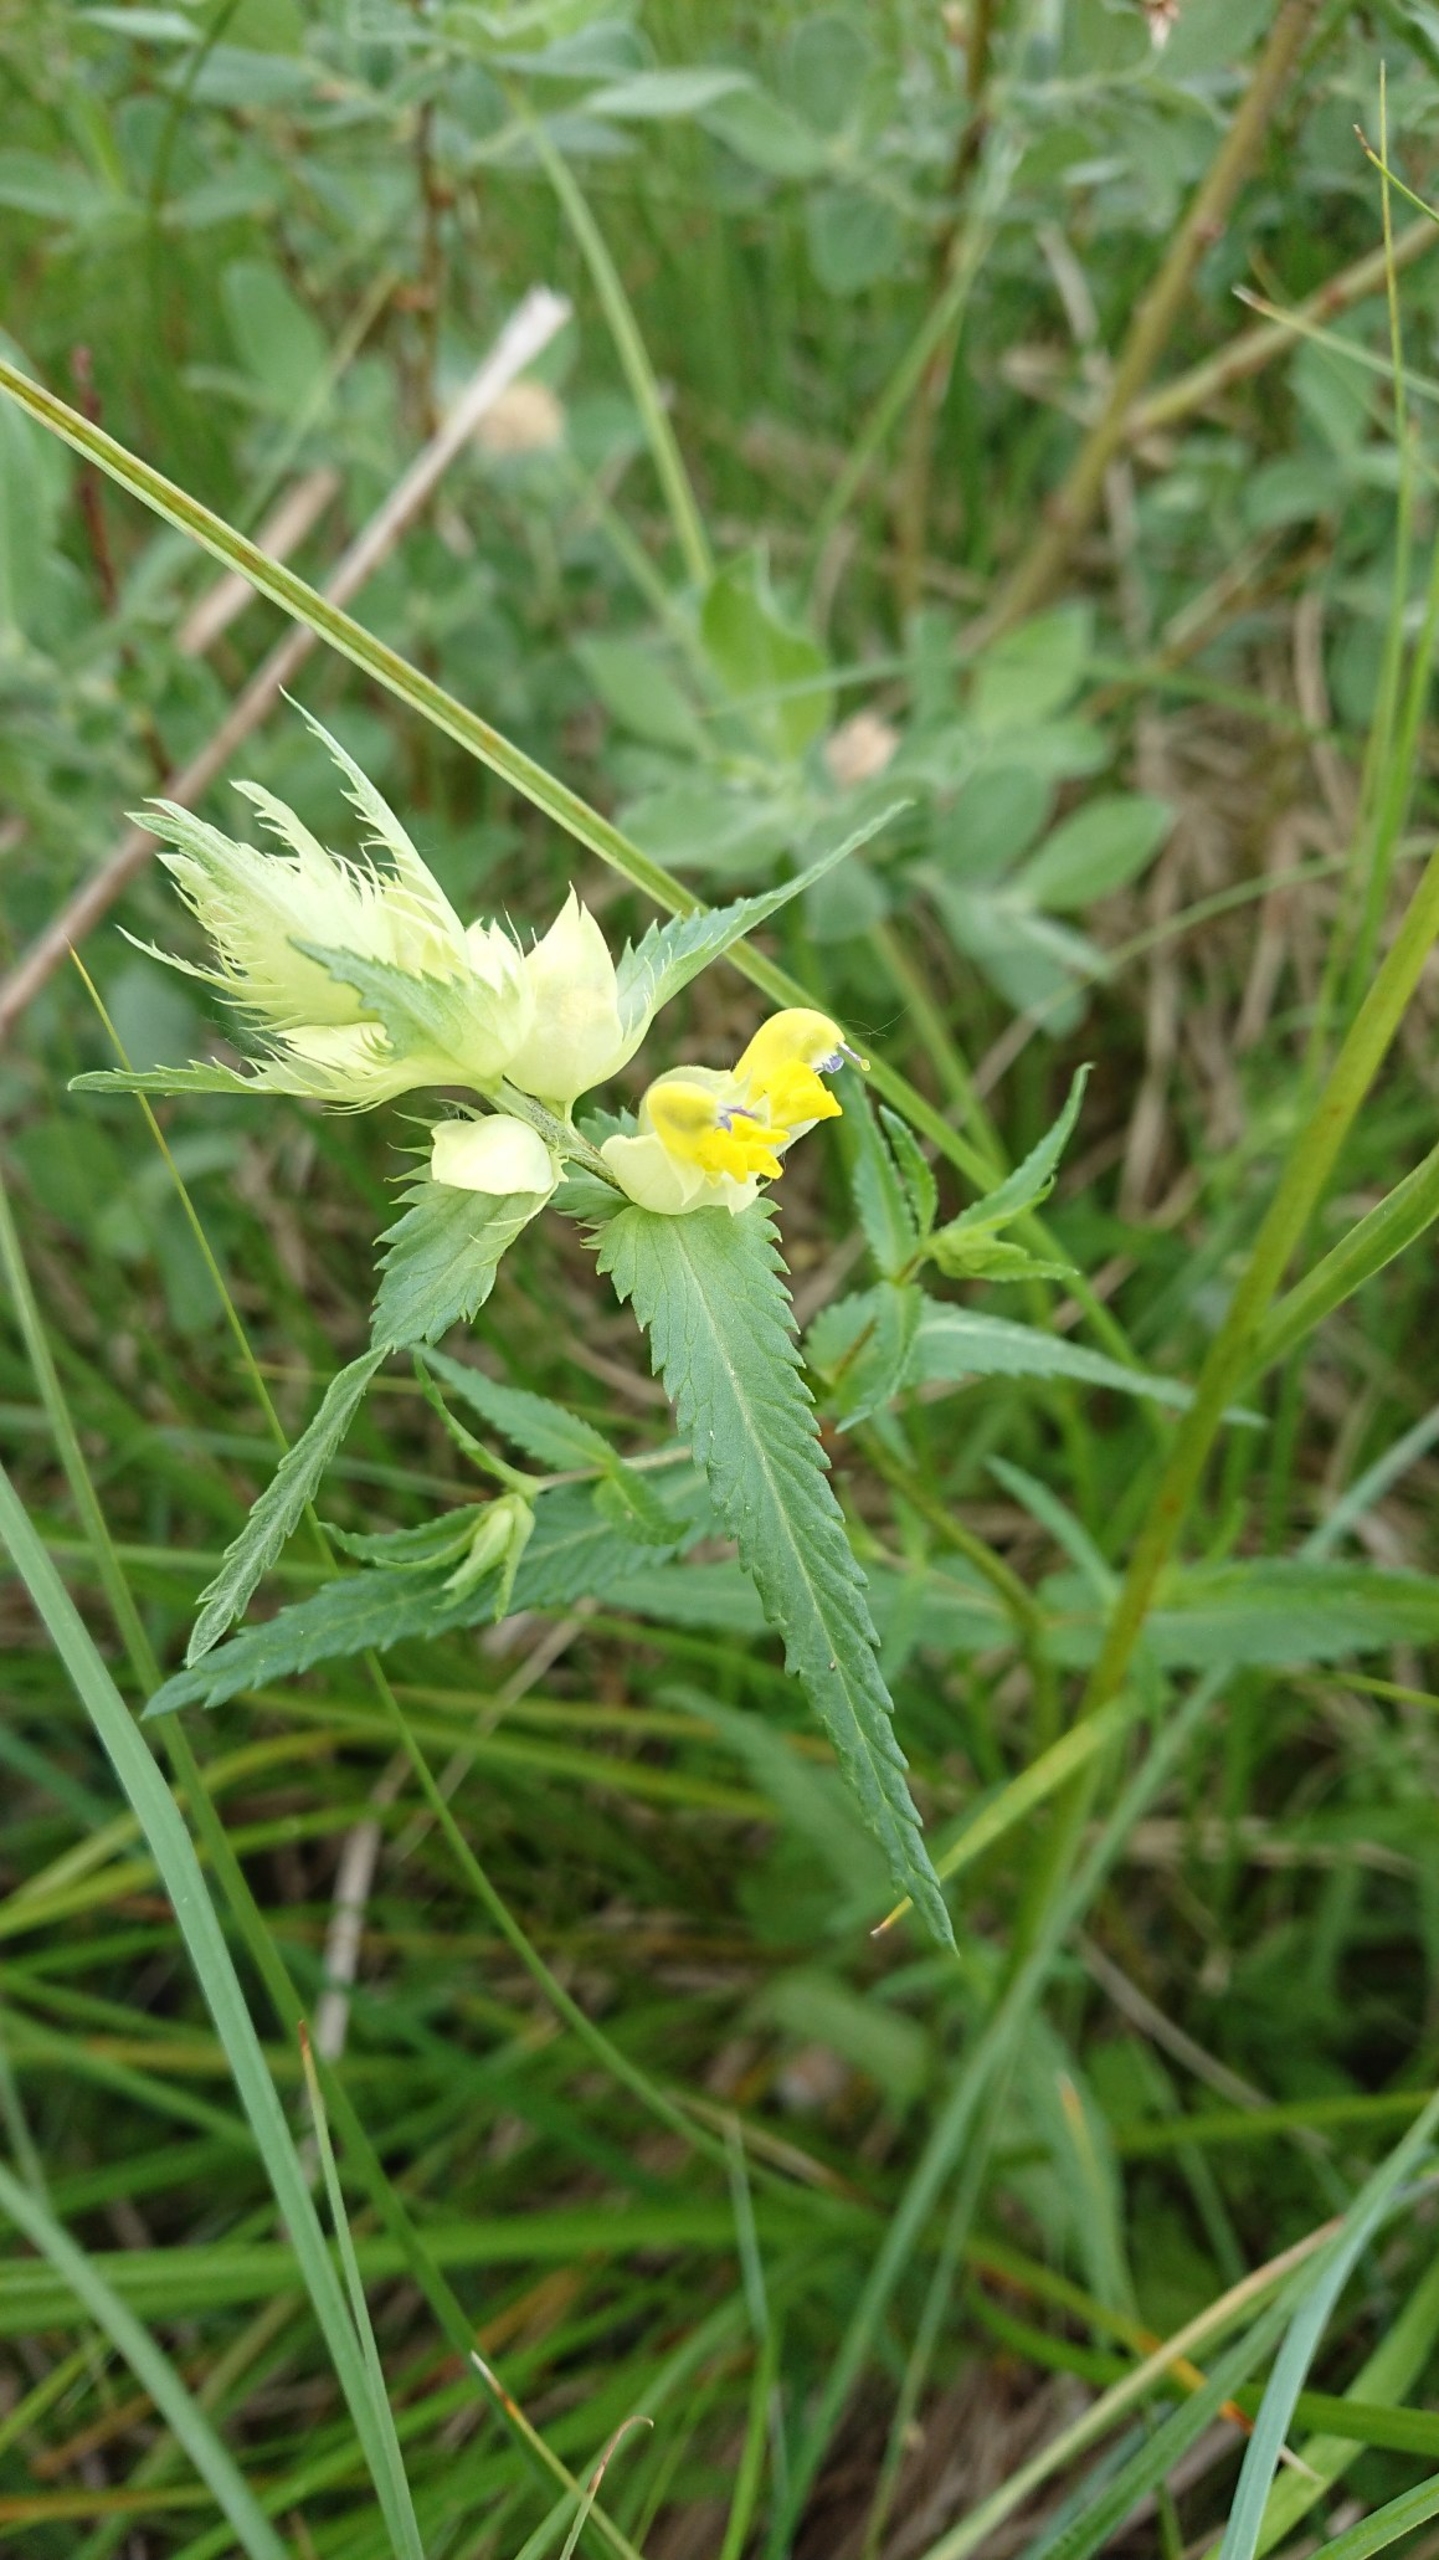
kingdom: Plantae
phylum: Tracheophyta
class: Magnoliopsida
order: Lamiales
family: Orobanchaceae
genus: Rhinanthus
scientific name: Rhinanthus
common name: Stor skjaller
